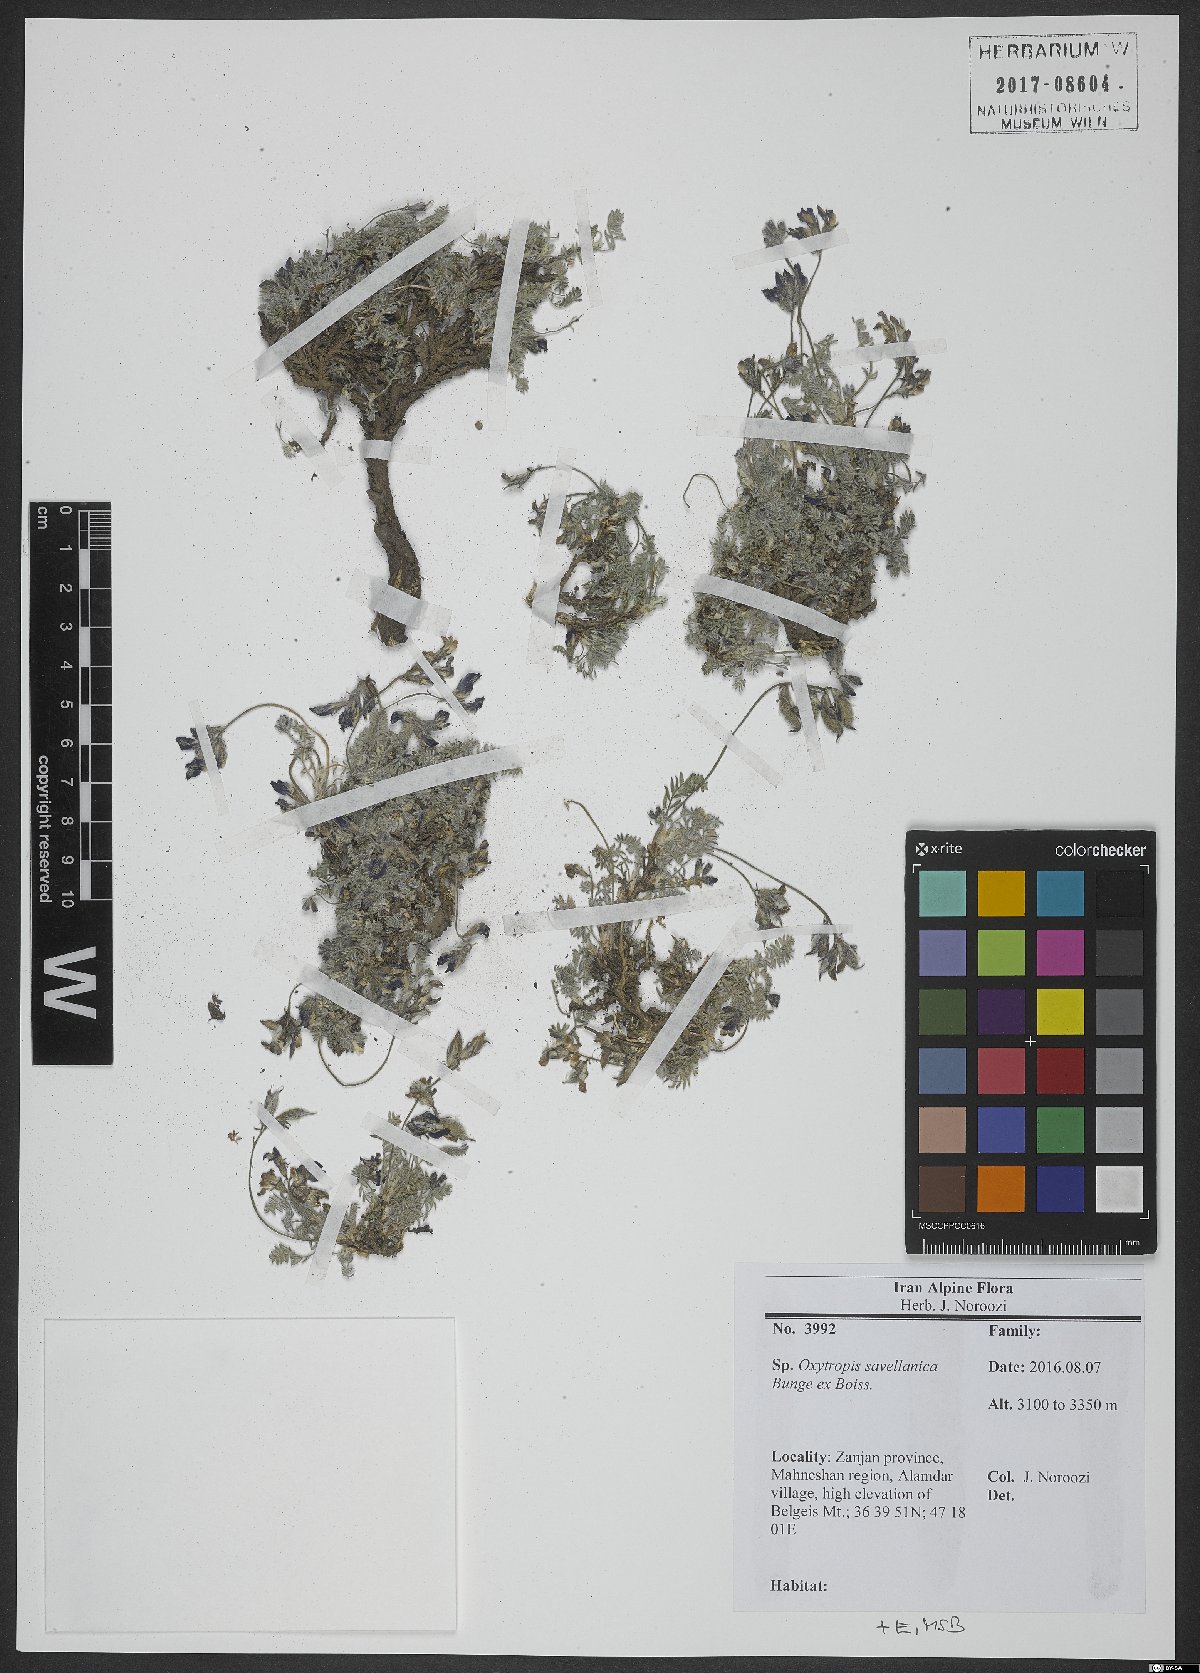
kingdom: Plantae
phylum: Tracheophyta
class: Magnoliopsida
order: Fabales
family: Fabaceae
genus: Oxytropis
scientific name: Oxytropis savellanica
